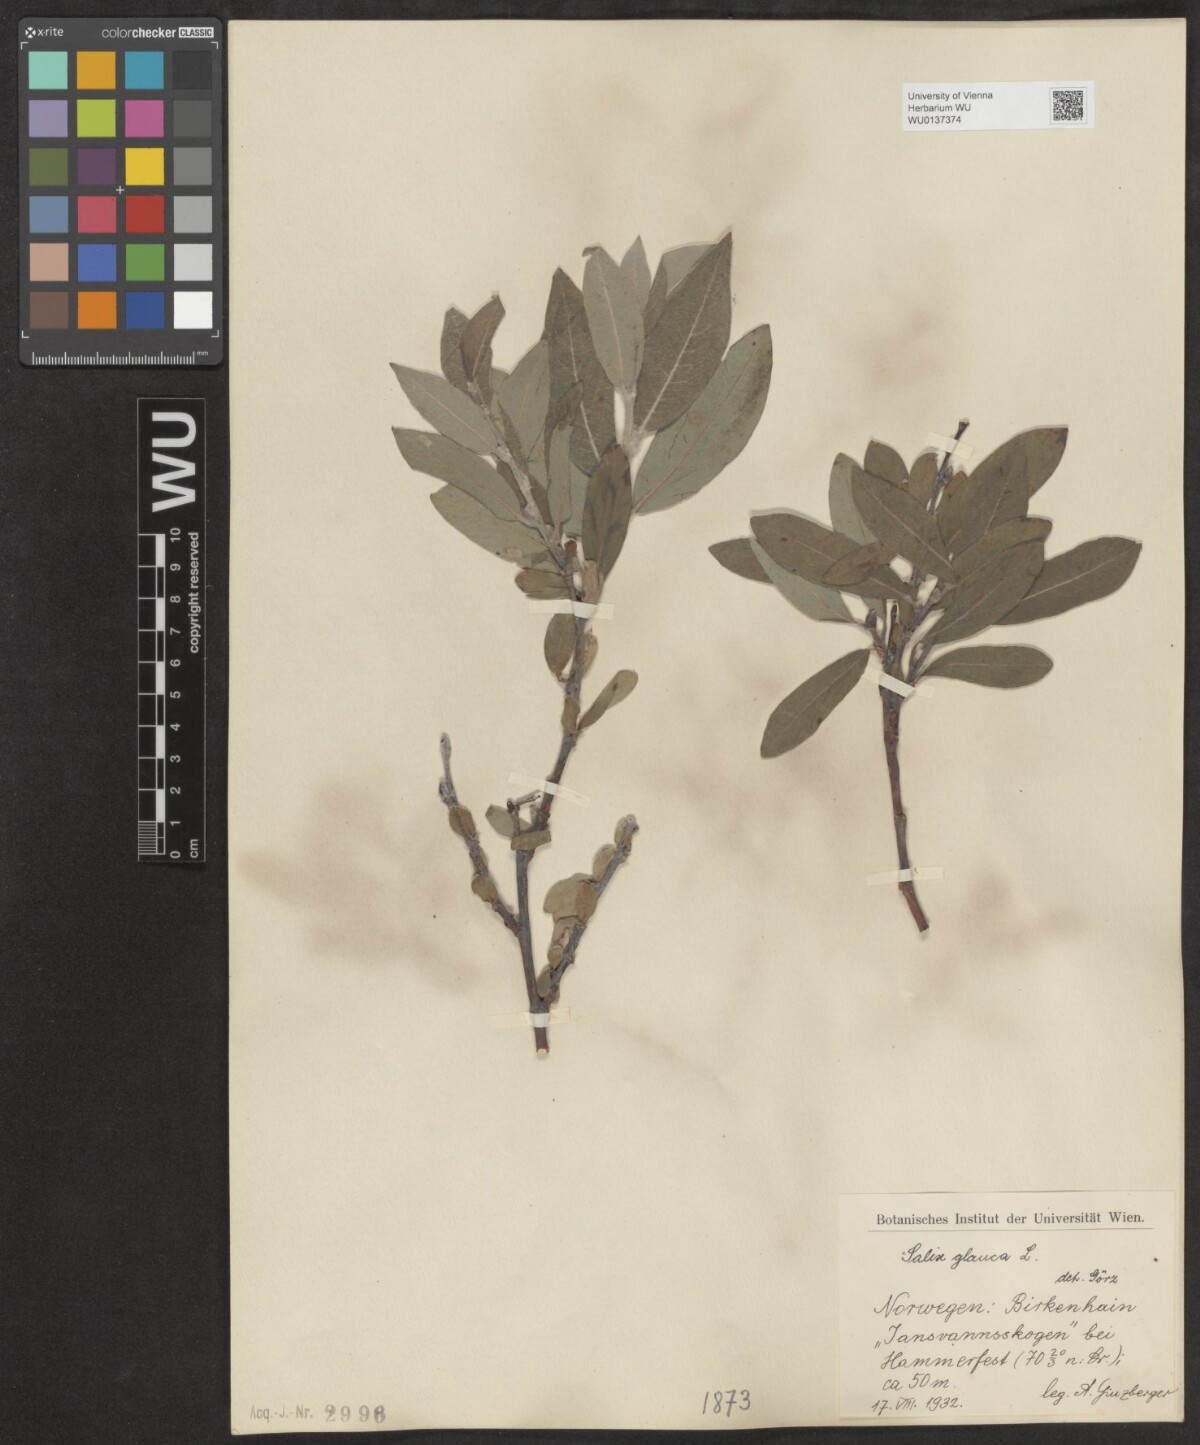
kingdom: Plantae
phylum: Tracheophyta
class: Magnoliopsida
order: Malpighiales
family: Salicaceae
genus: Salix
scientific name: Salix glauca
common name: Glaucous willow
